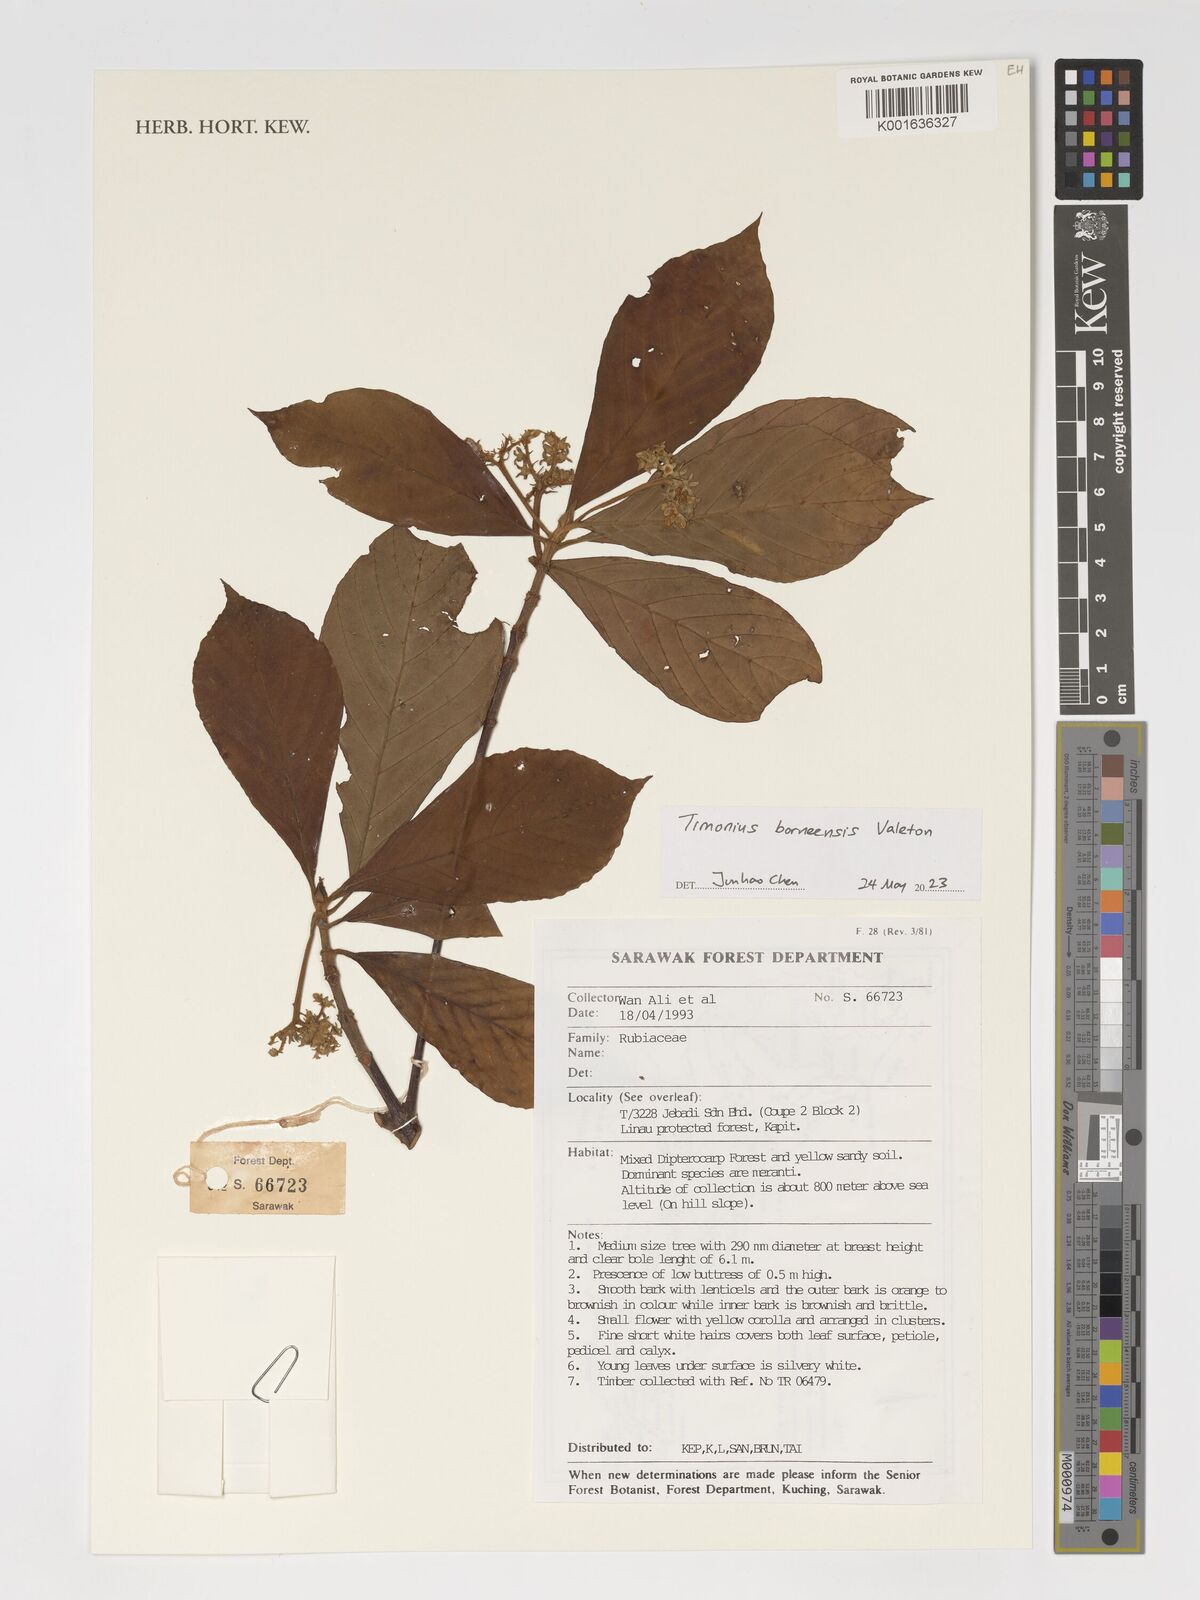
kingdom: Plantae
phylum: Tracheophyta
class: Magnoliopsida
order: Gentianales
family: Rubiaceae
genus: Timonius
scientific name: Timonius borneensis
